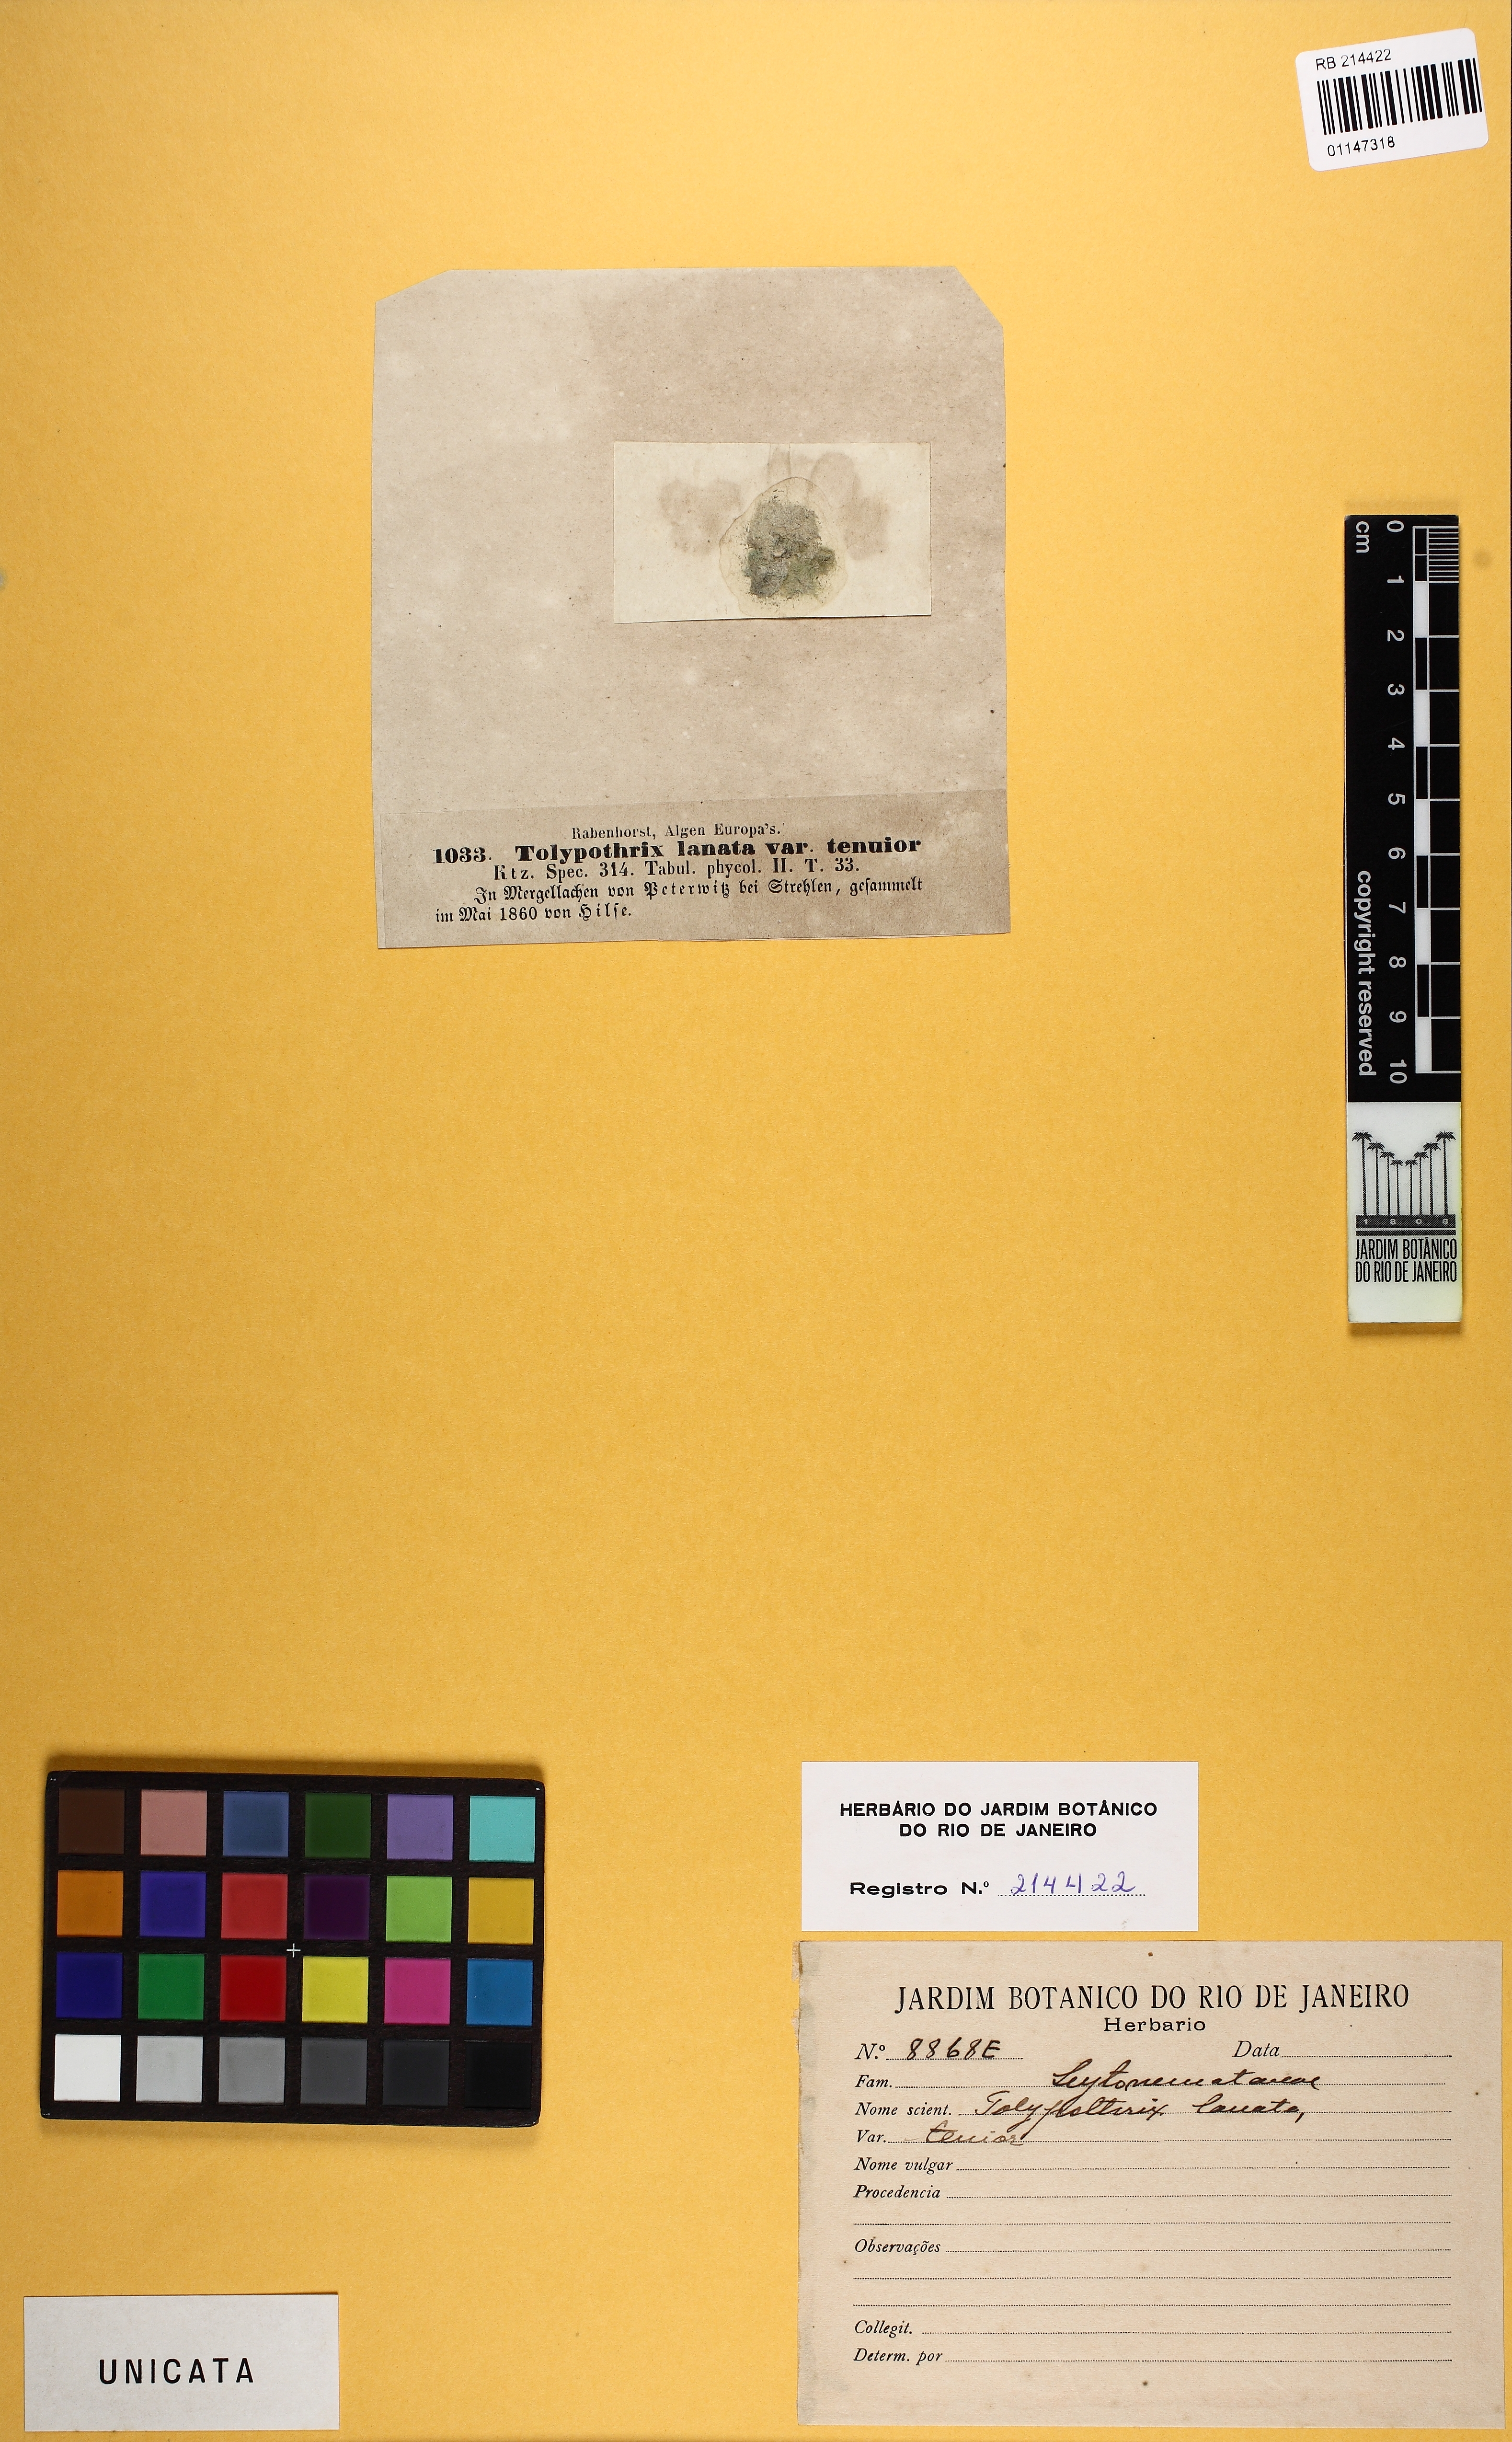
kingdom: Bacteria
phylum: Cyanobacteria
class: Cyanobacteriia
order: Cyanobacteriales
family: Tolypothrichaceae
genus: Tolypothrix
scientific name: Tolypothrix lanata
